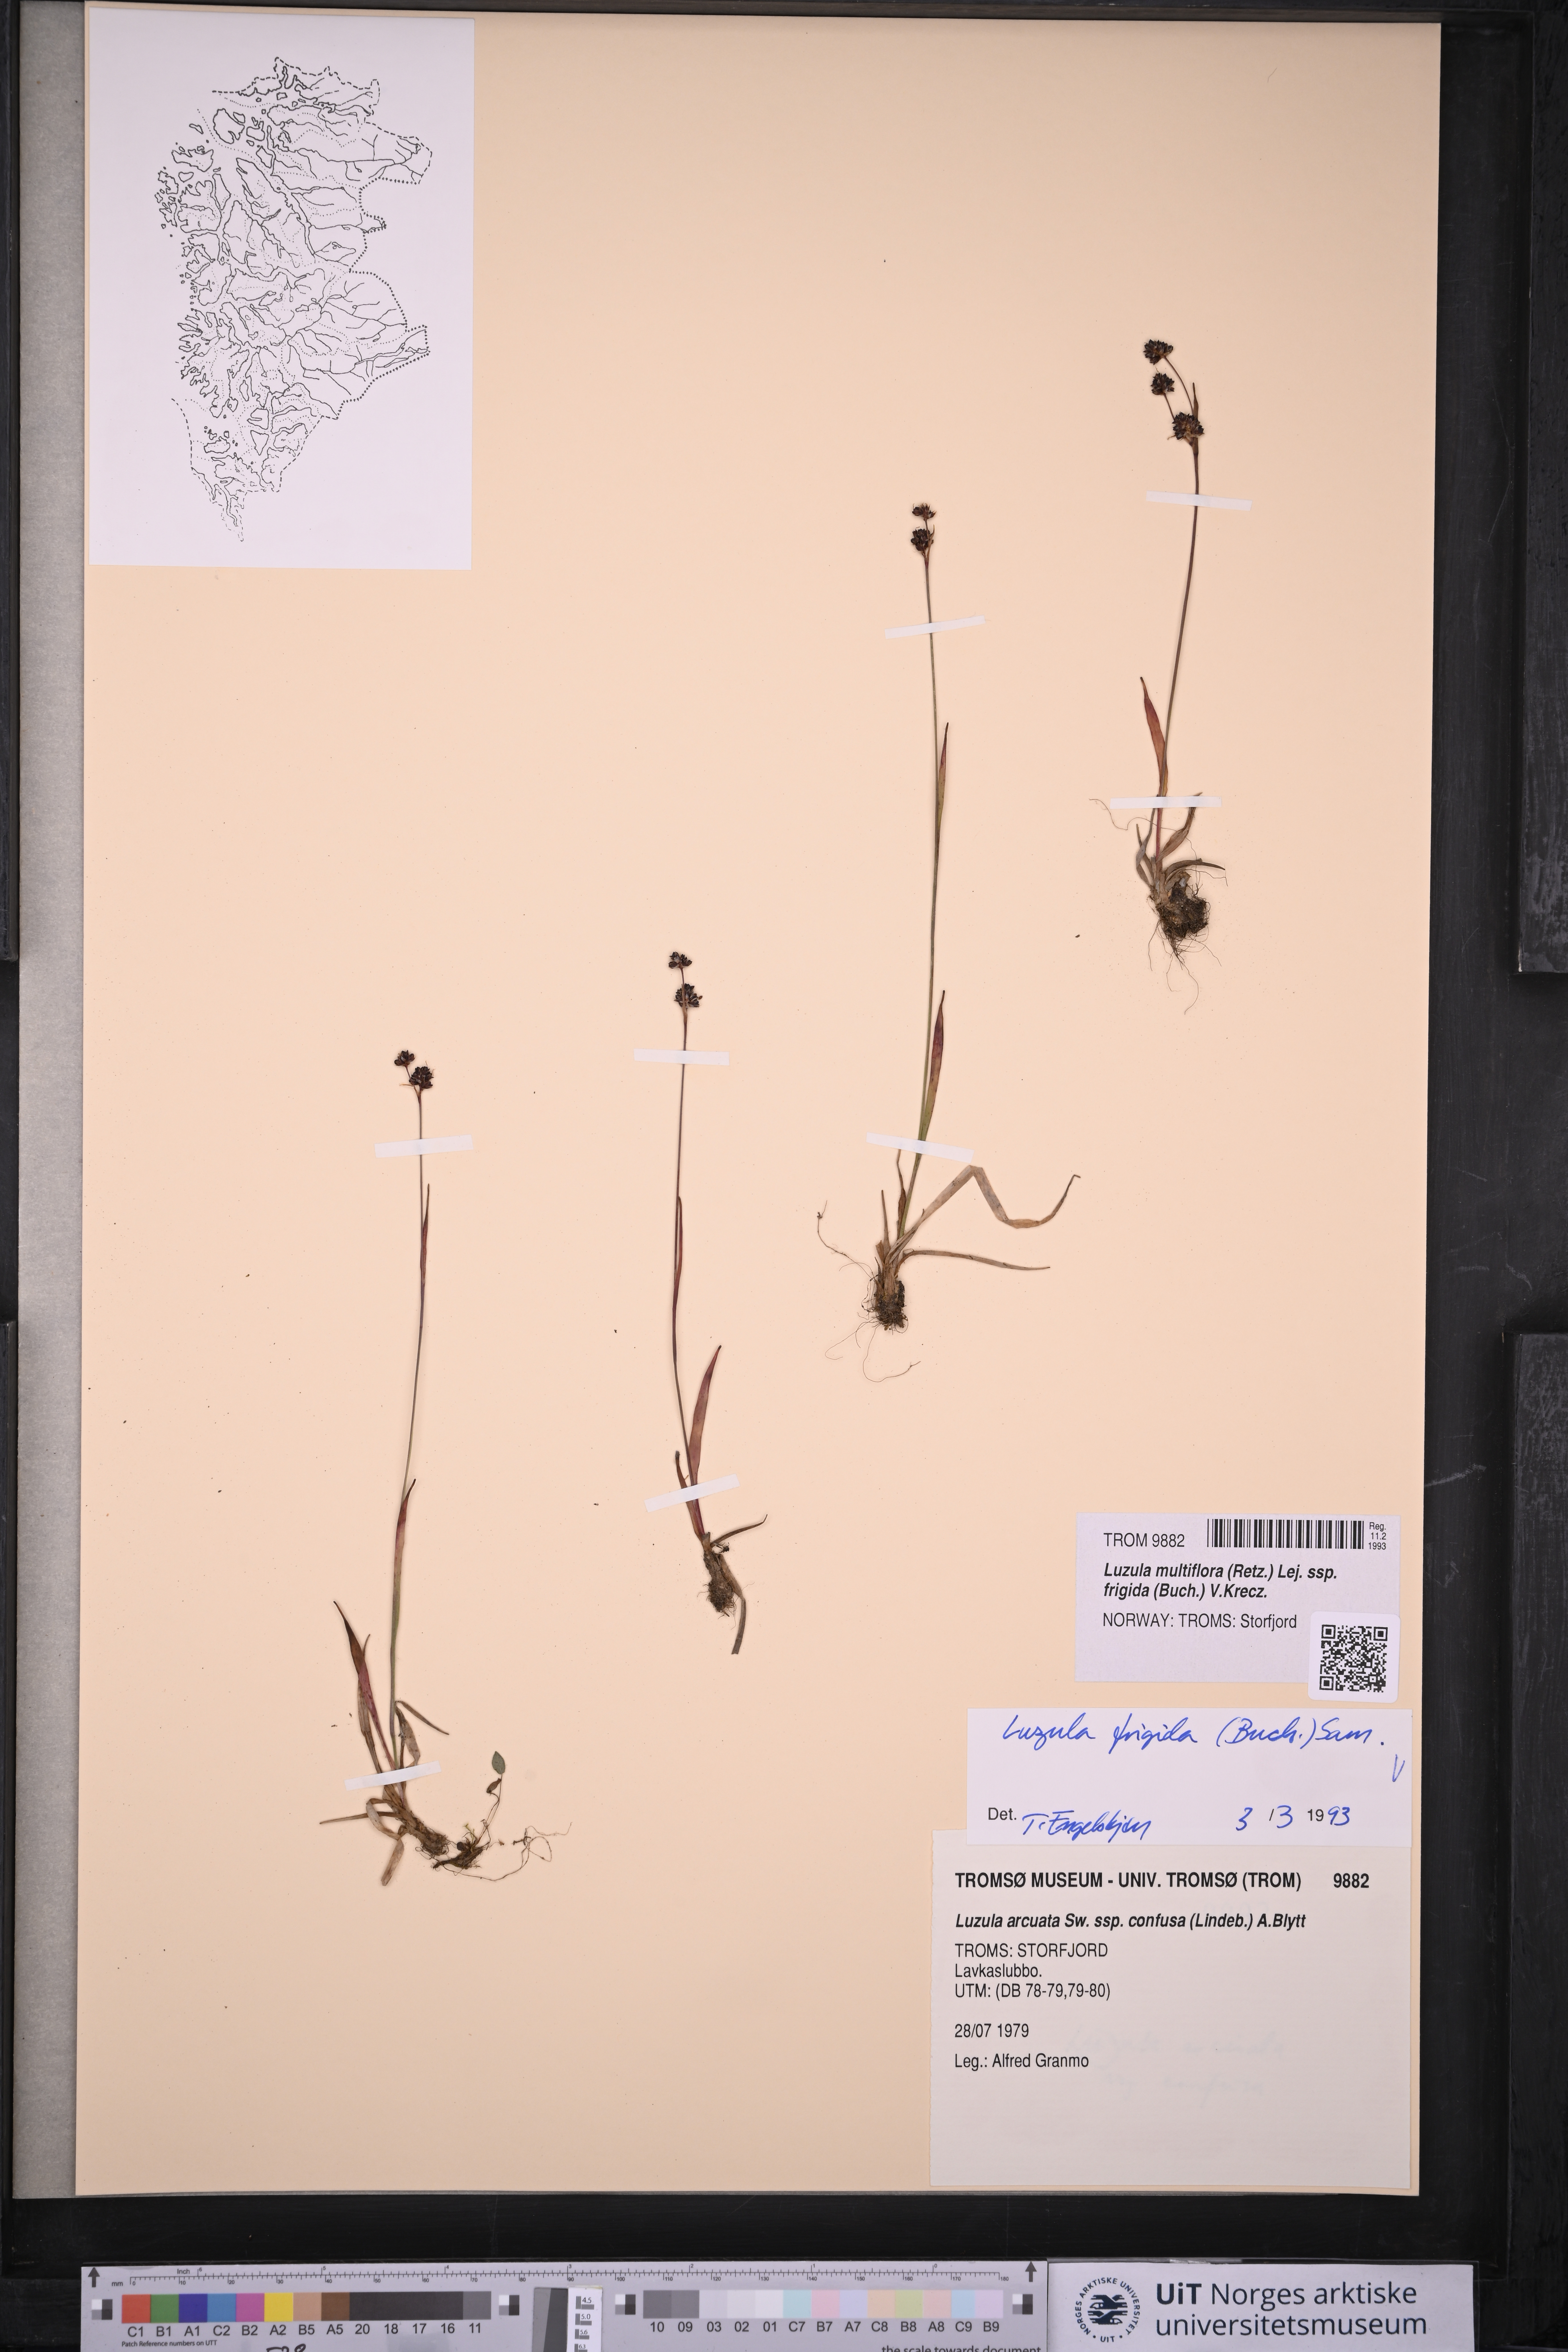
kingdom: Plantae
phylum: Tracheophyta
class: Liliopsida
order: Poales
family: Juncaceae
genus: Luzula
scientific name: Luzula multiflora
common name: Heath wood-rush
